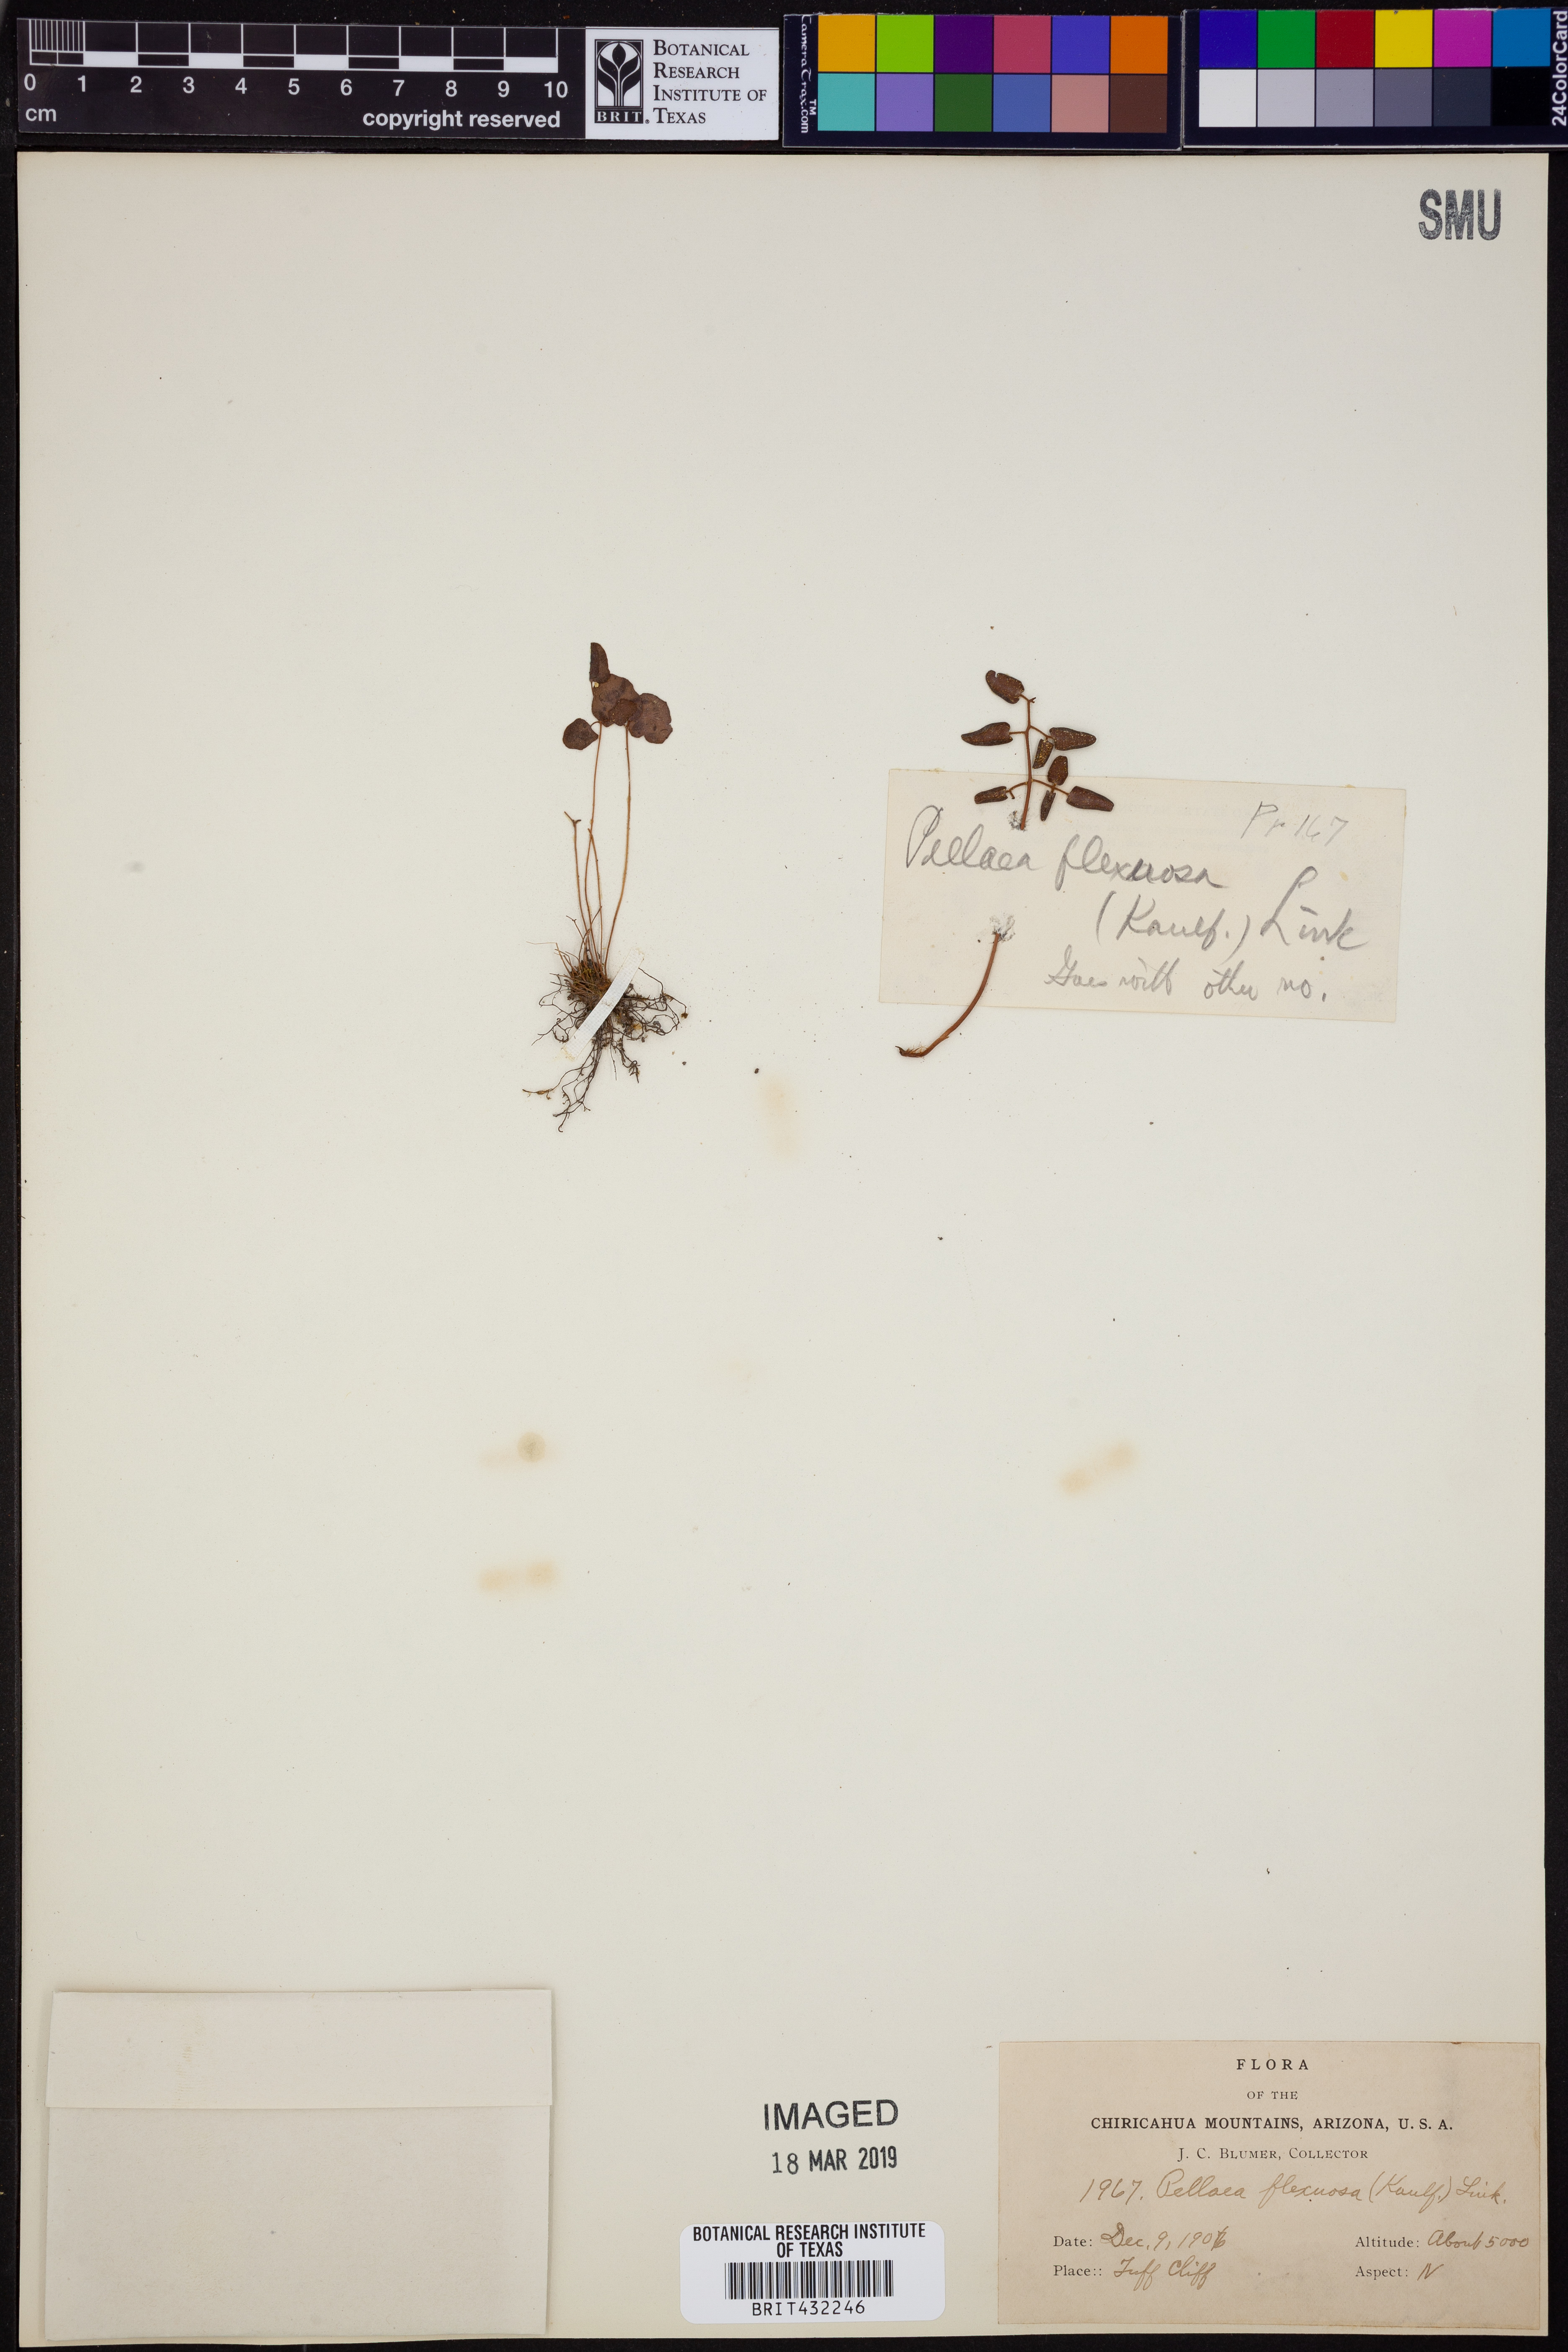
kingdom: Plantae
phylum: Tracheophyta
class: Polypodiopsida
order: Polypodiales
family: Pteridaceae
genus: Pellaea
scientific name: Pellaea ovata
